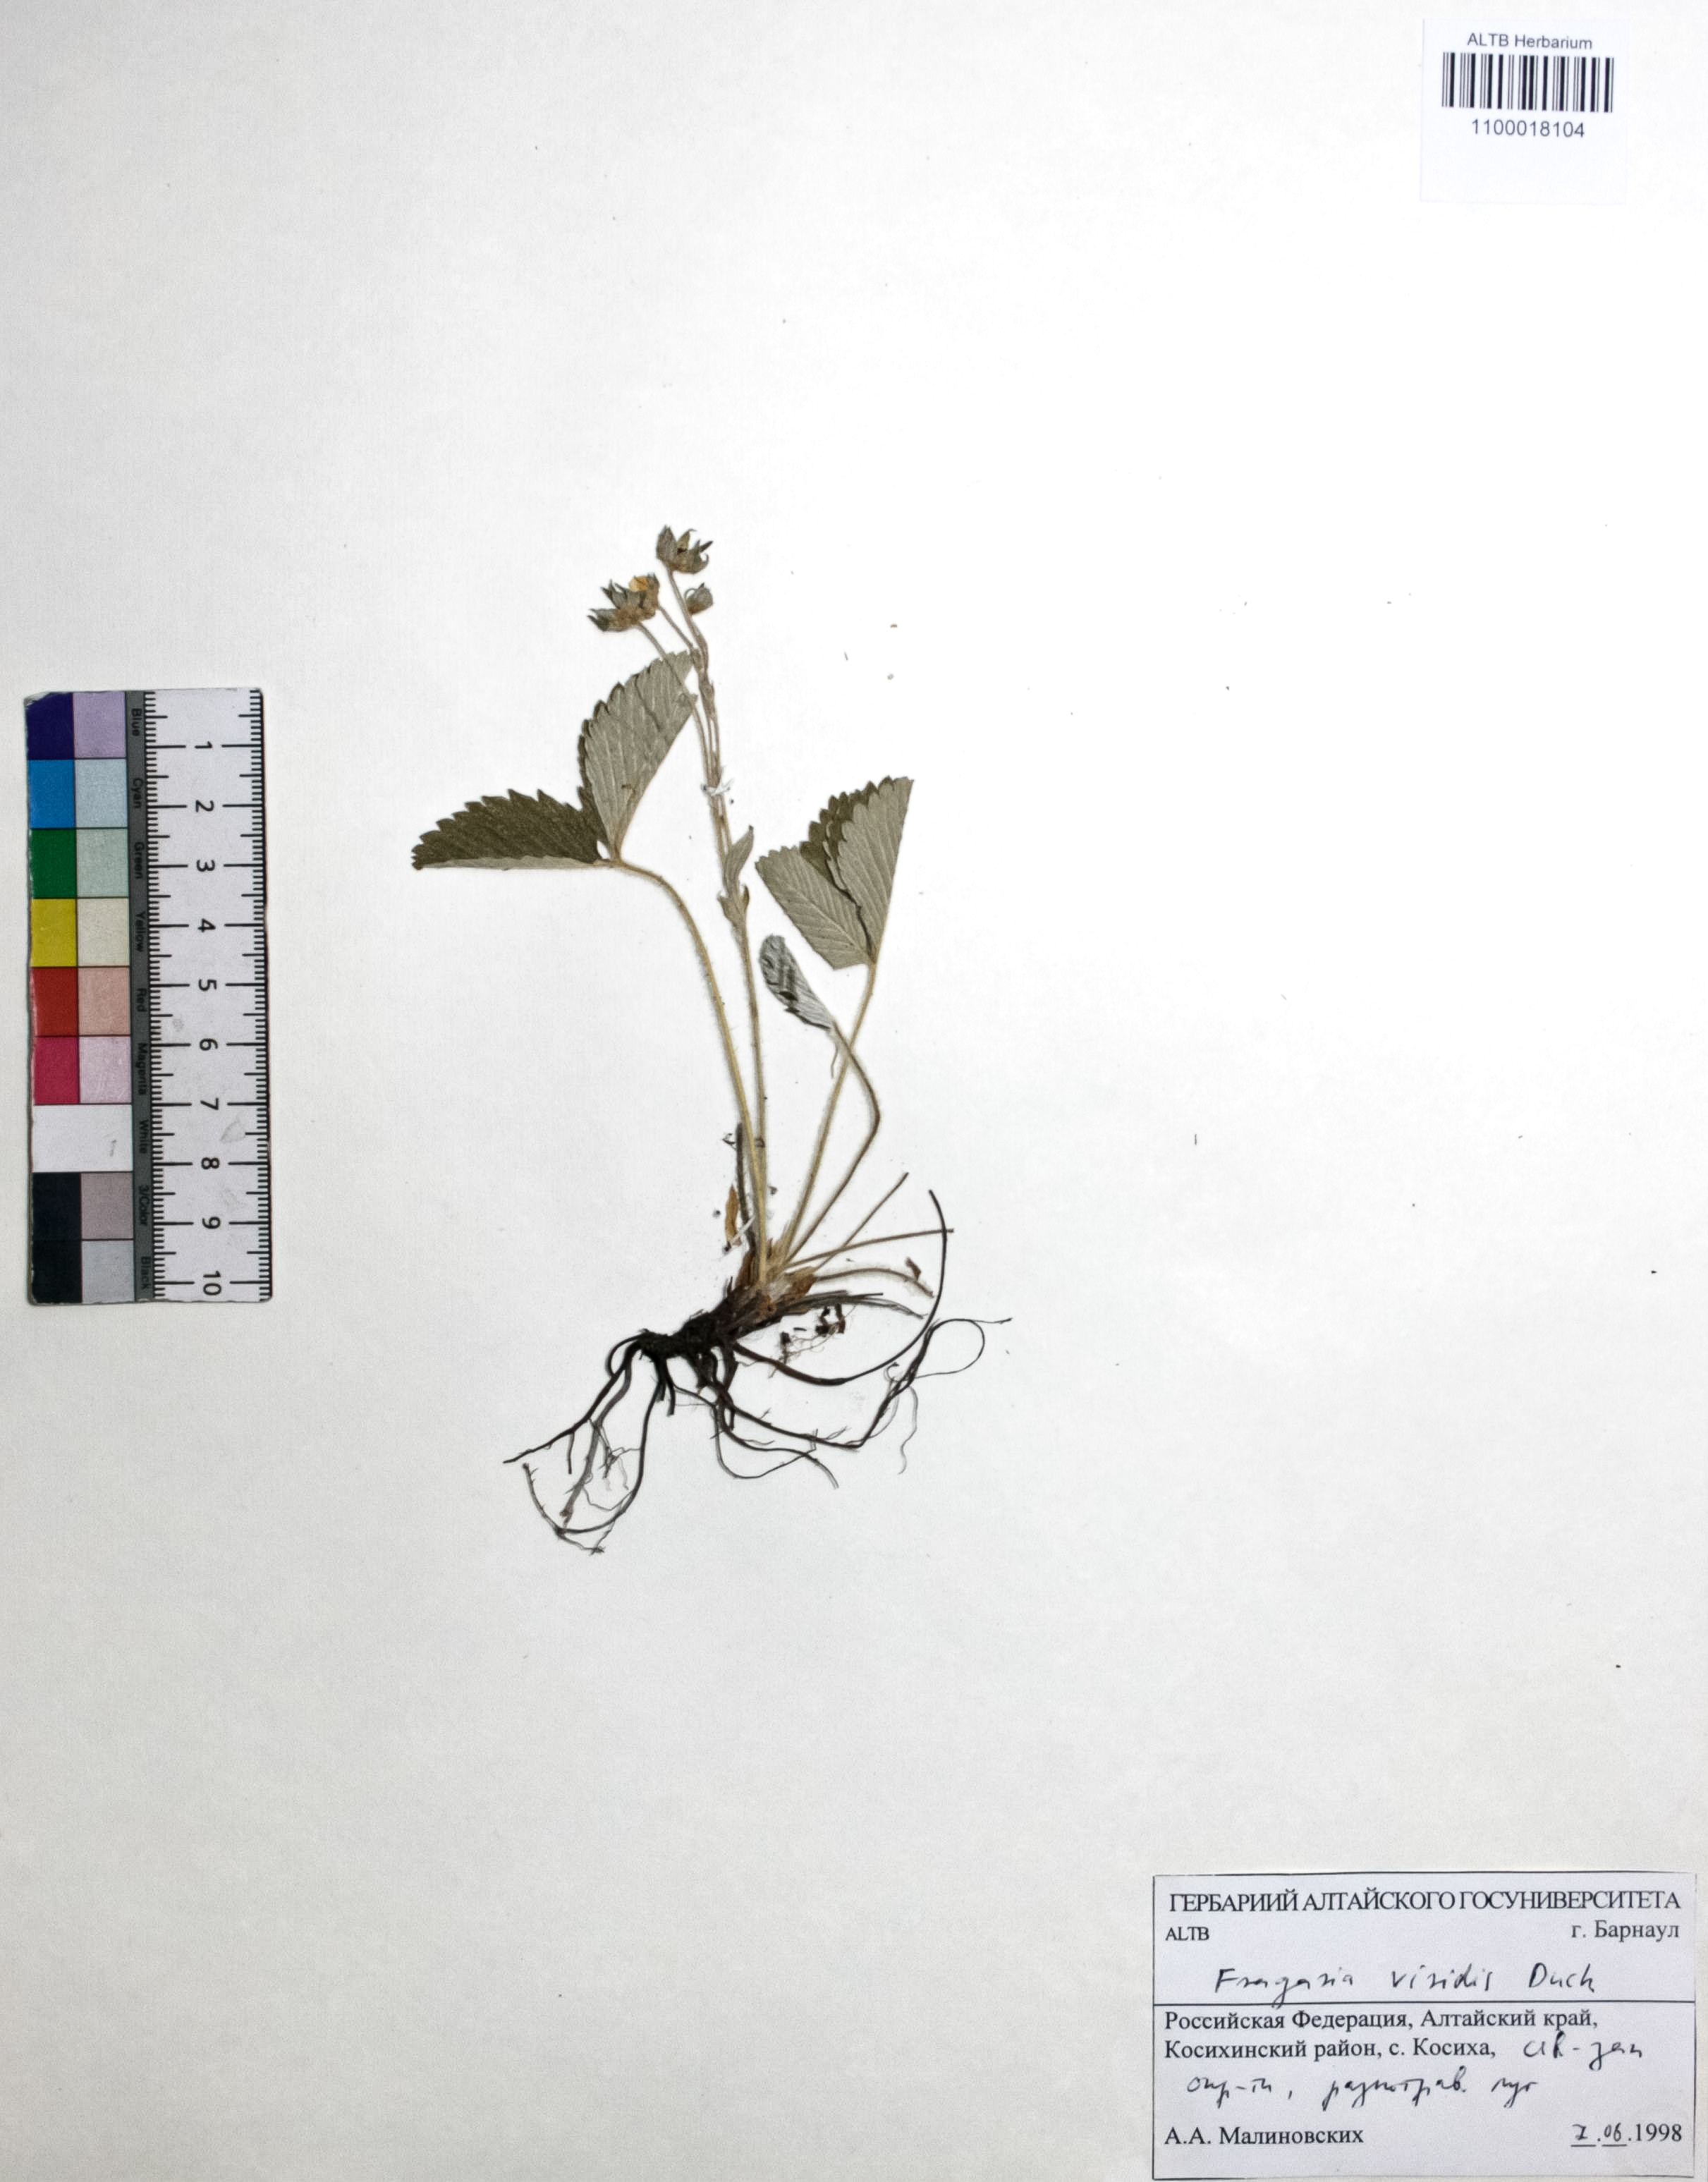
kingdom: Plantae
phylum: Tracheophyta
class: Magnoliopsida
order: Rosales
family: Rosaceae
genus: Fragaria
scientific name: Fragaria viridis
